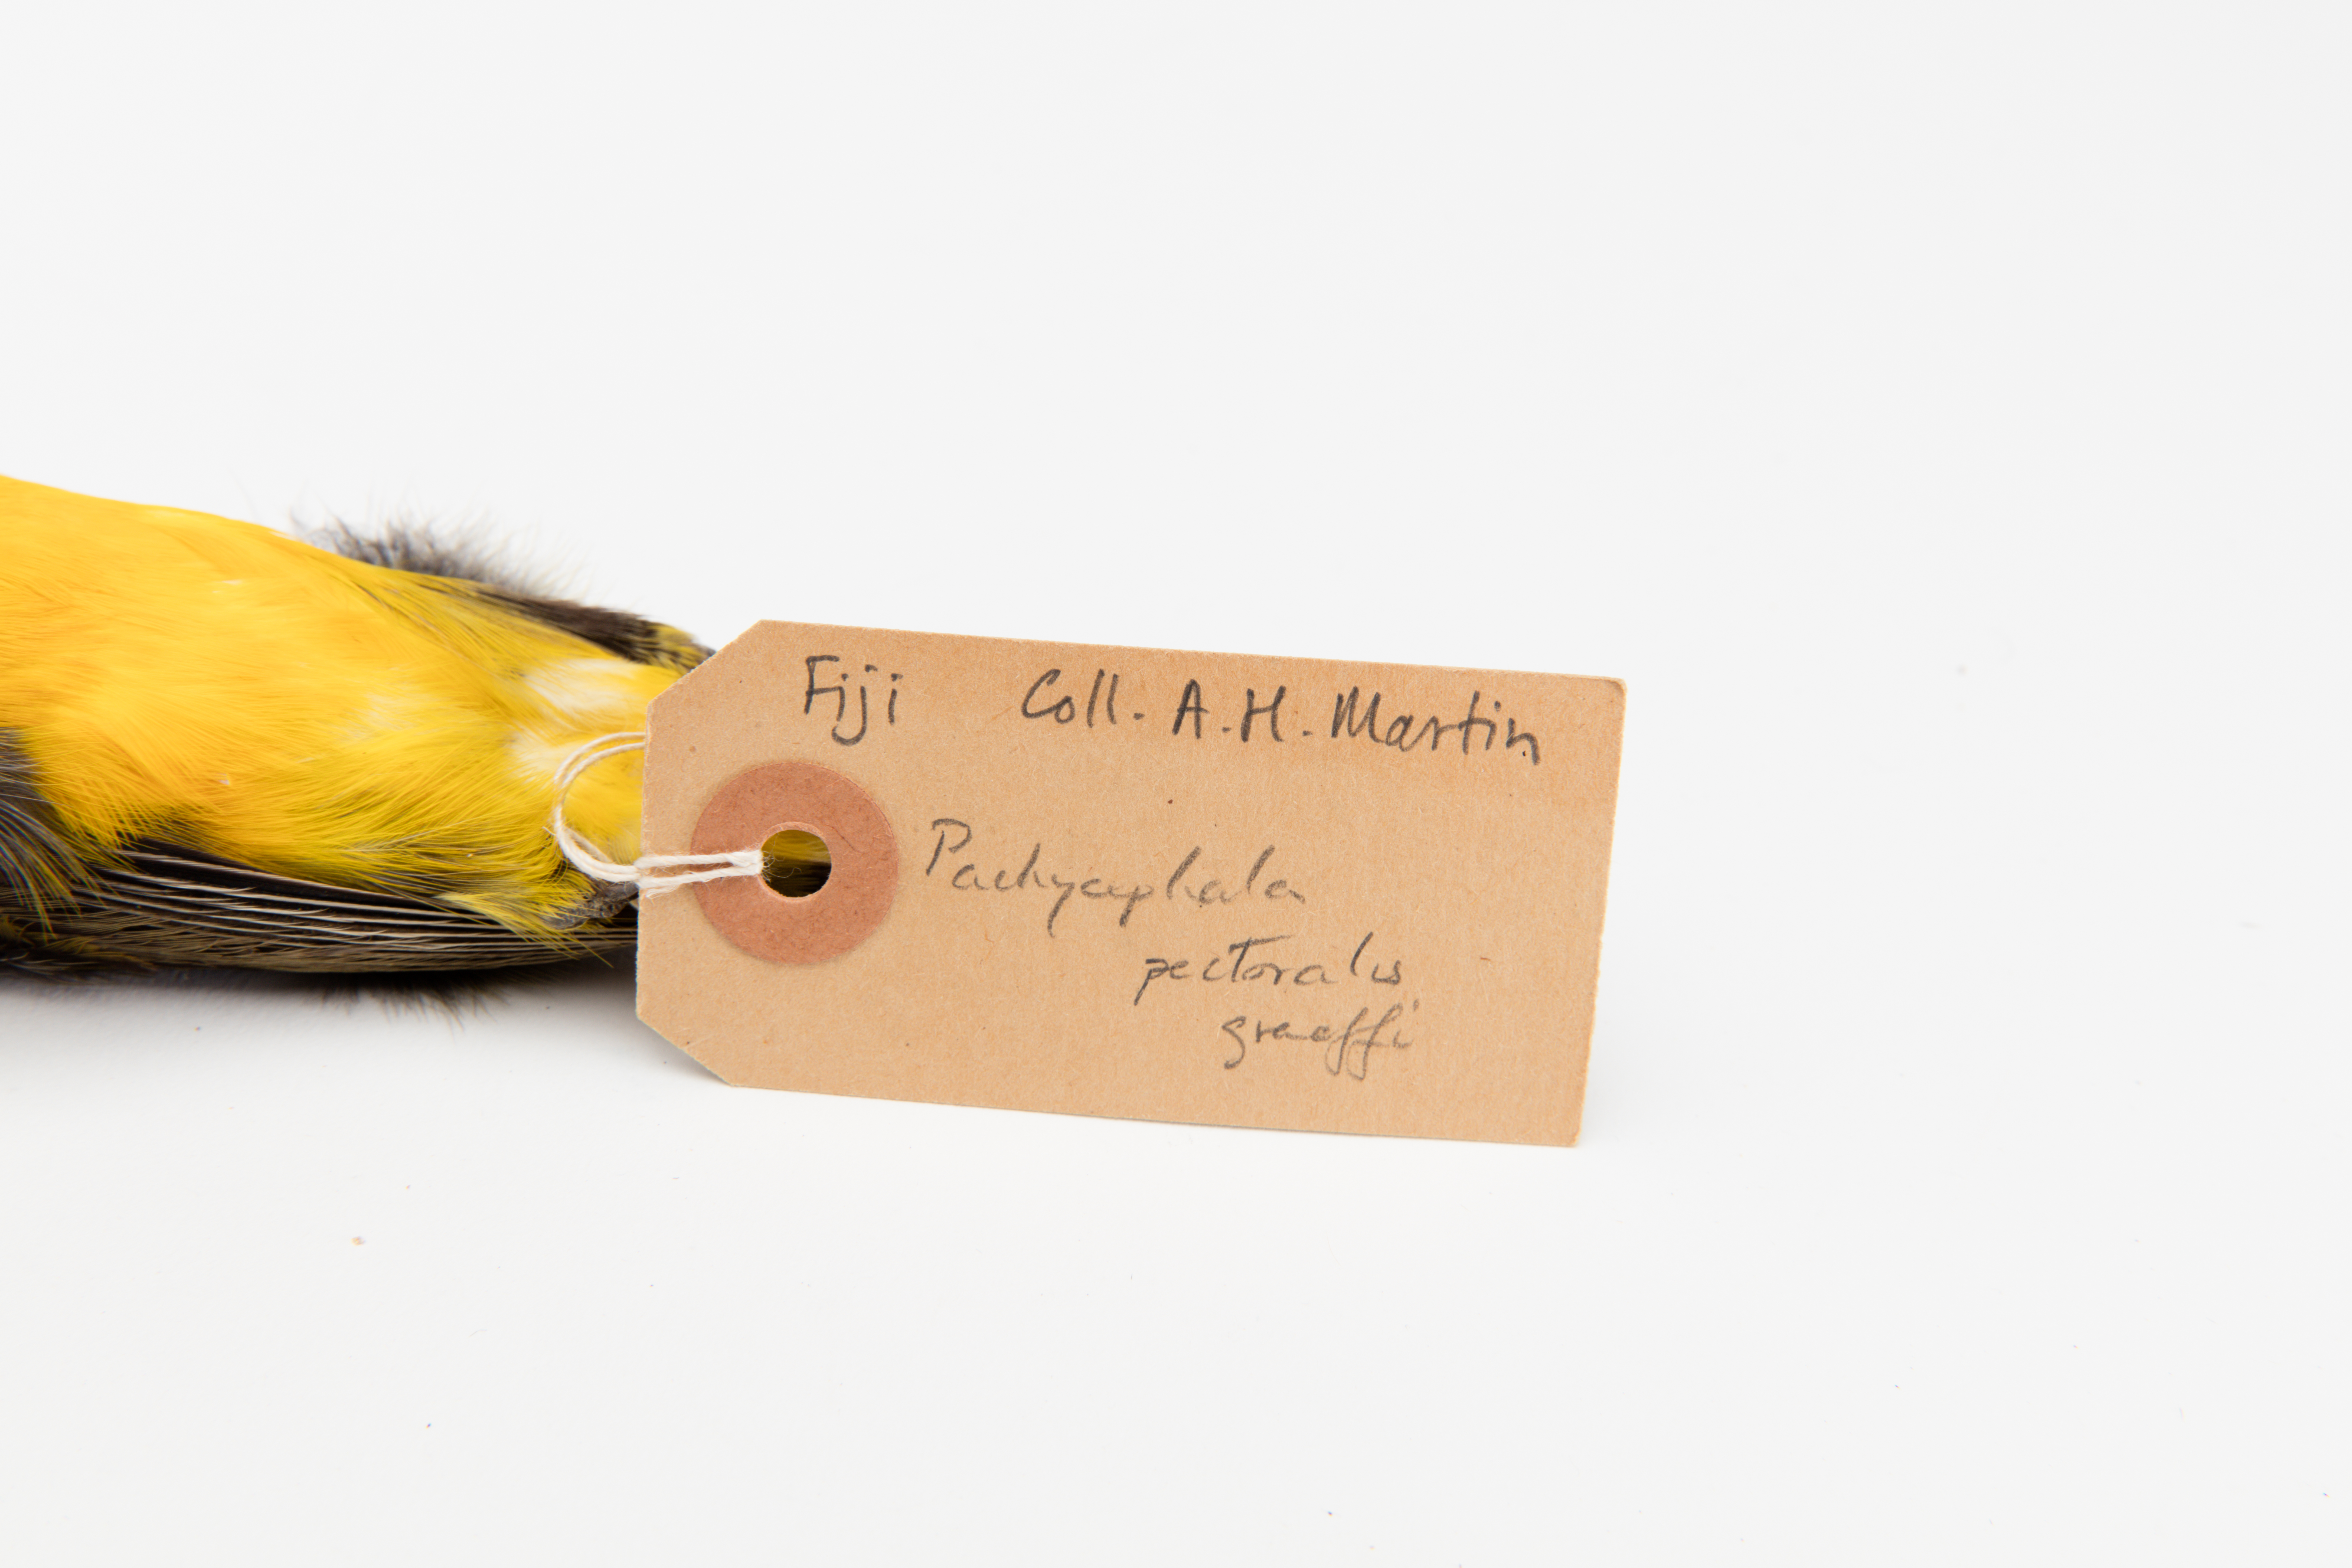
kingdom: Animalia
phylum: Chordata
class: Aves
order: Passeriformes
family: Pachycephalidae
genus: Pachycephala
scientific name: Pachycephala pectoralis
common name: Australian golden whistler
